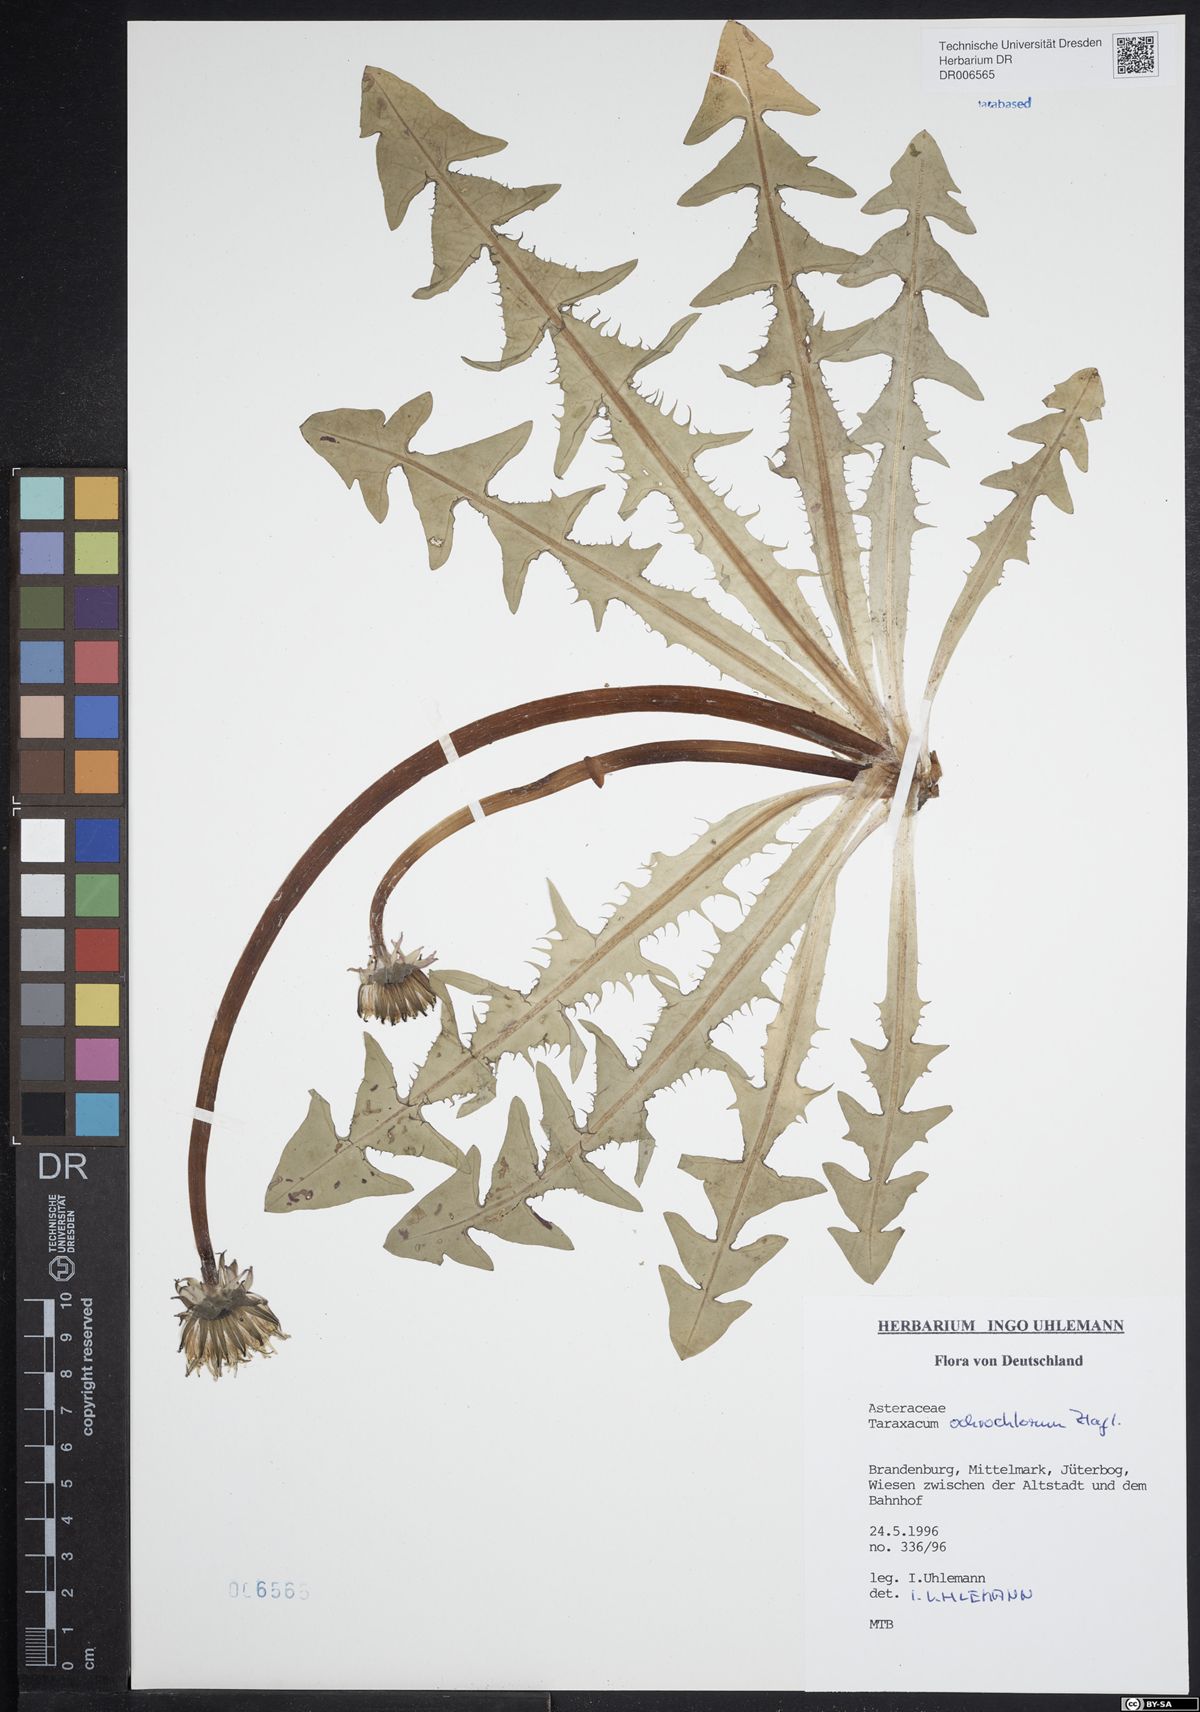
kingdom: Plantae
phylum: Tracheophyta
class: Magnoliopsida
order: Asterales
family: Asteraceae
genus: Taraxacum
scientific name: Taraxacum ochrochlorum
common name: Winged dandelion
